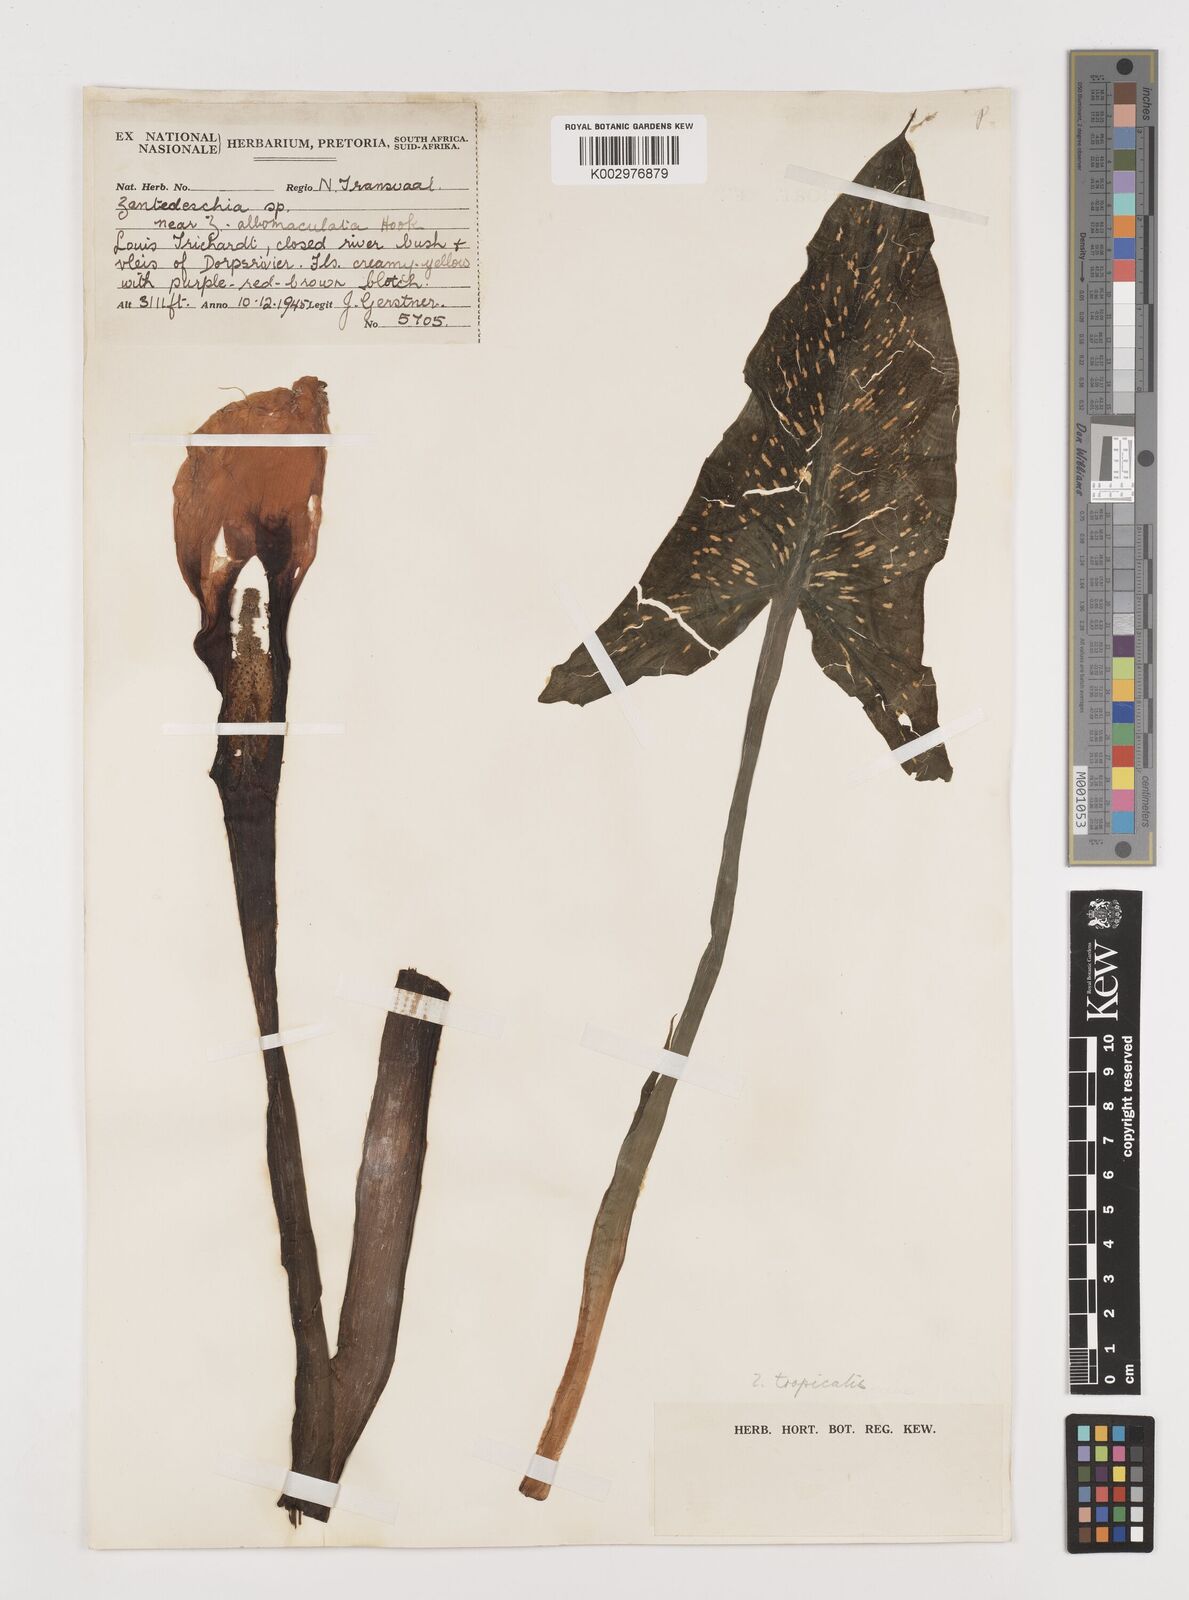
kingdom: Plantae
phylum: Tracheophyta
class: Liliopsida
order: Alismatales
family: Araceae
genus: Zantedeschia
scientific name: Zantedeschia albomaculata
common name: Spotted calla lily
